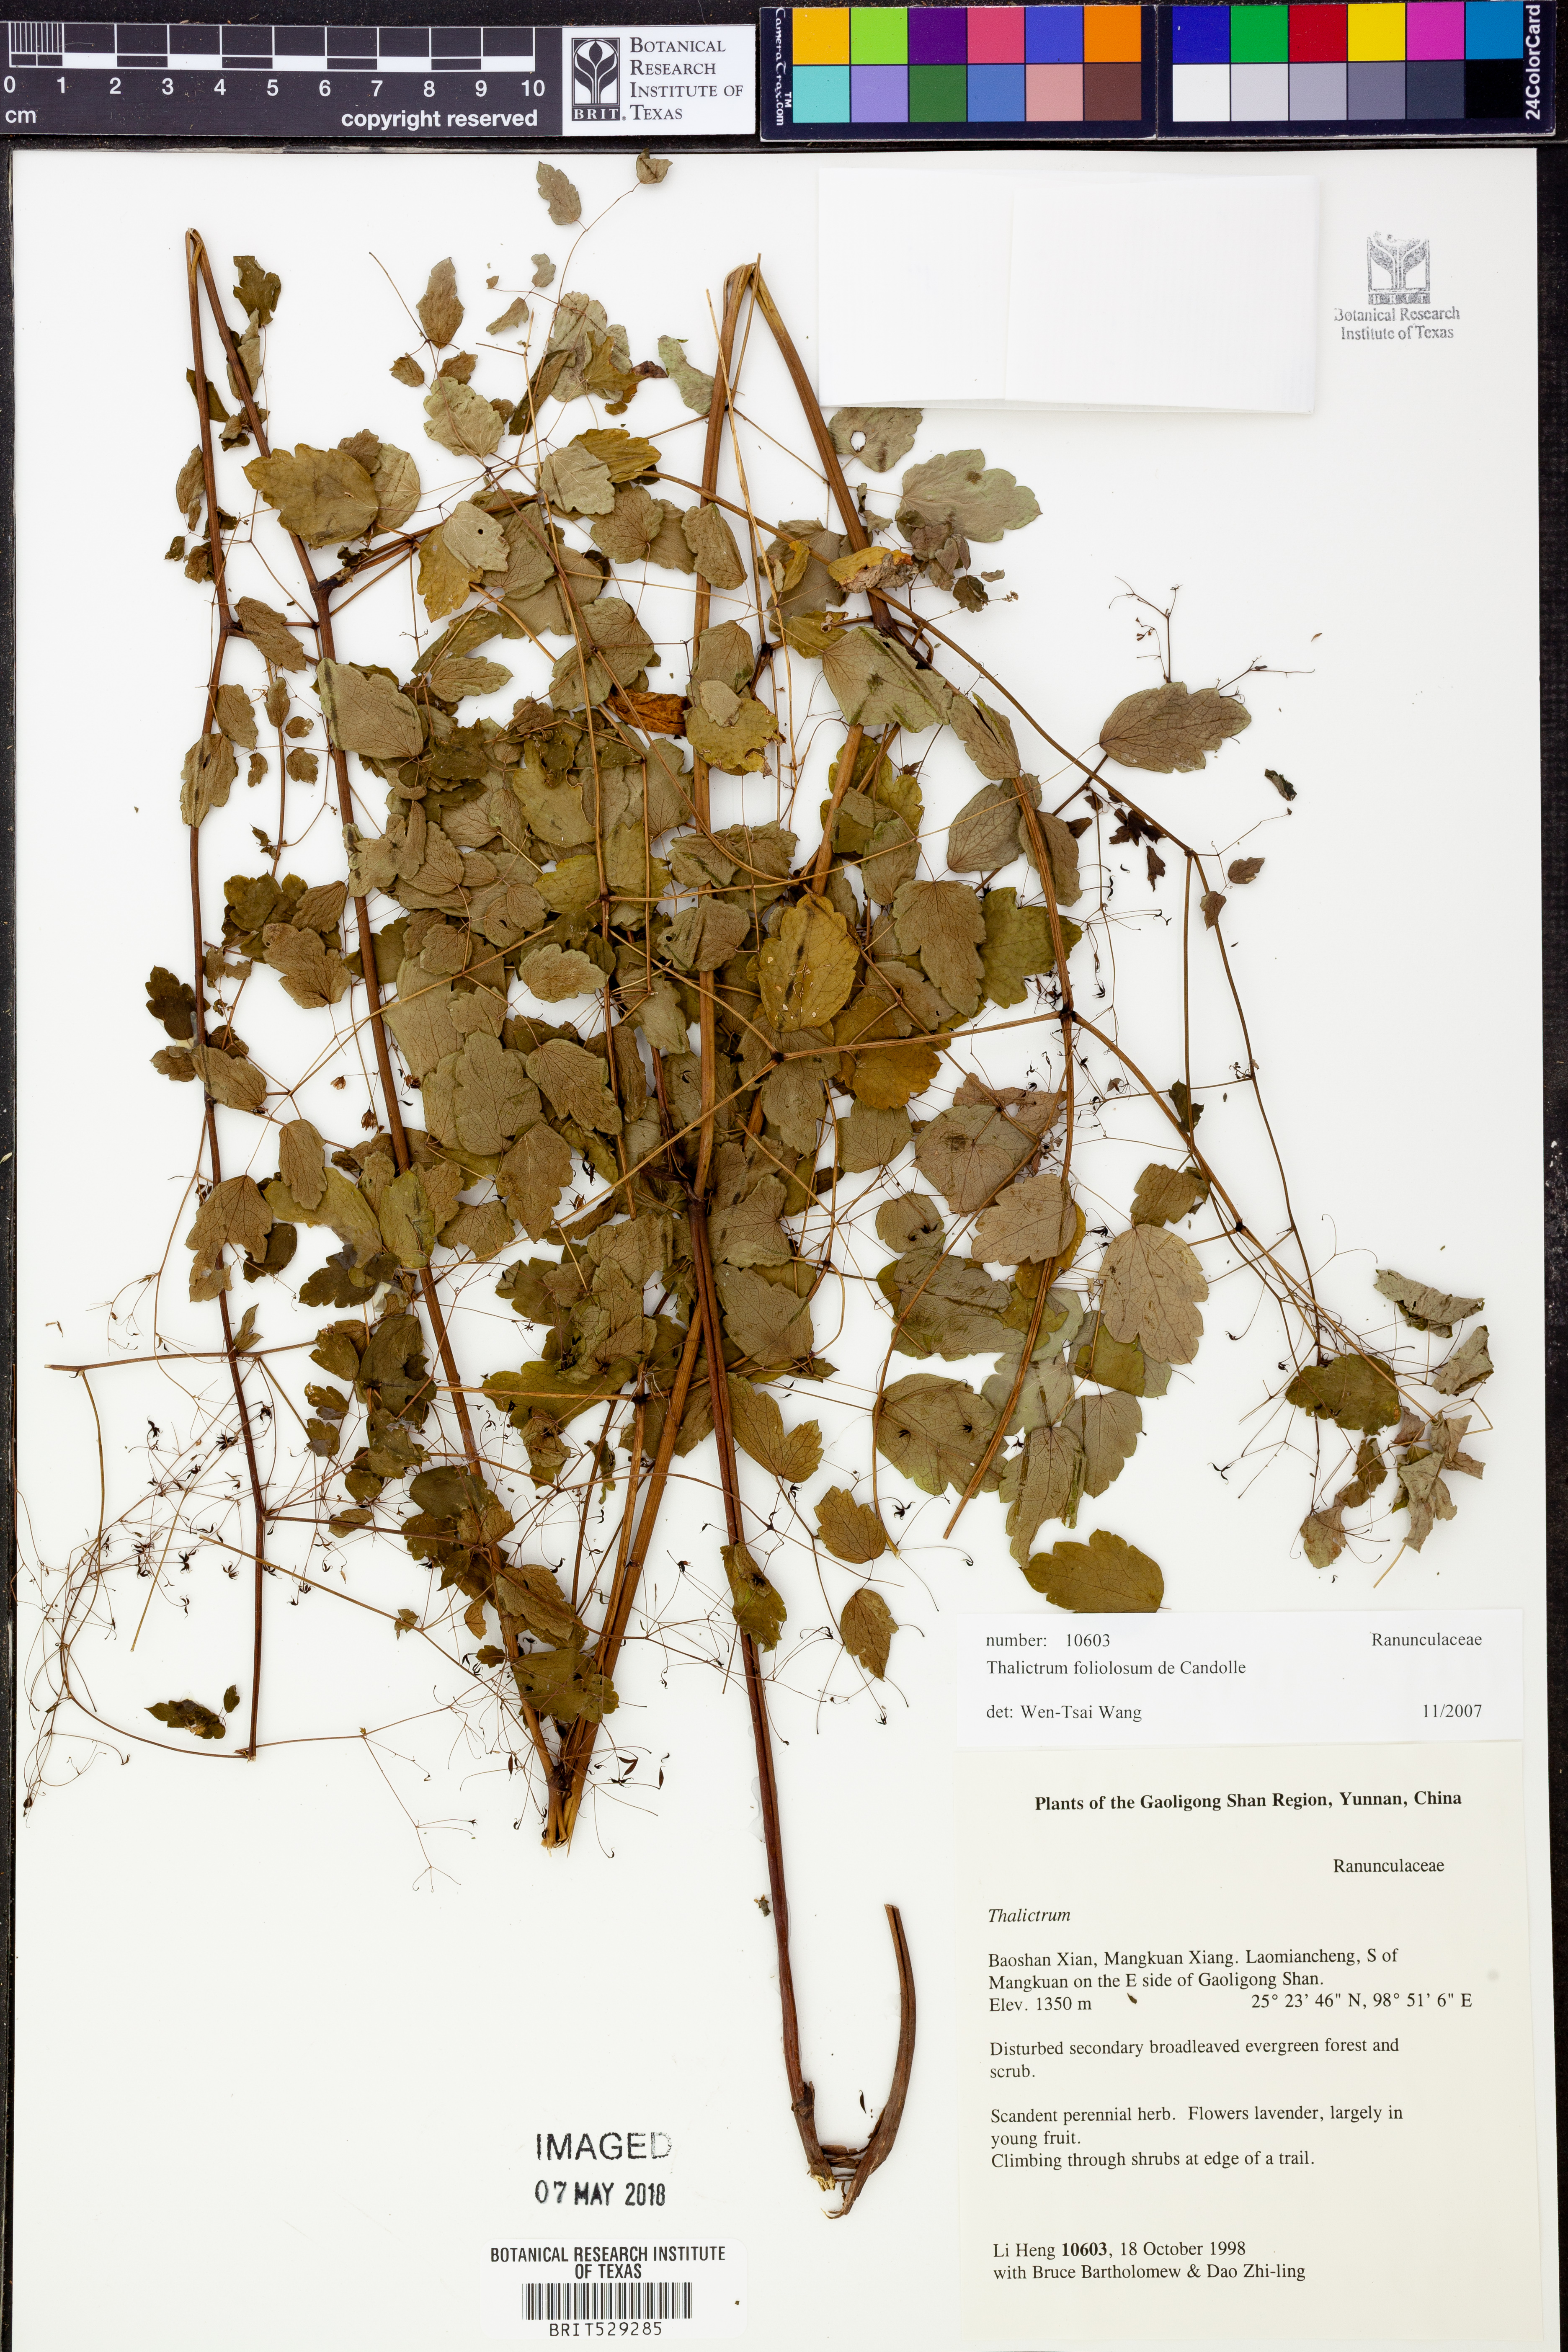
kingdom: Plantae
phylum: Tracheophyta
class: Magnoliopsida
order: Ranunculales
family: Ranunculaceae
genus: Thalictrum
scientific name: Thalictrum foliolosum
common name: Asian meadow-rue
